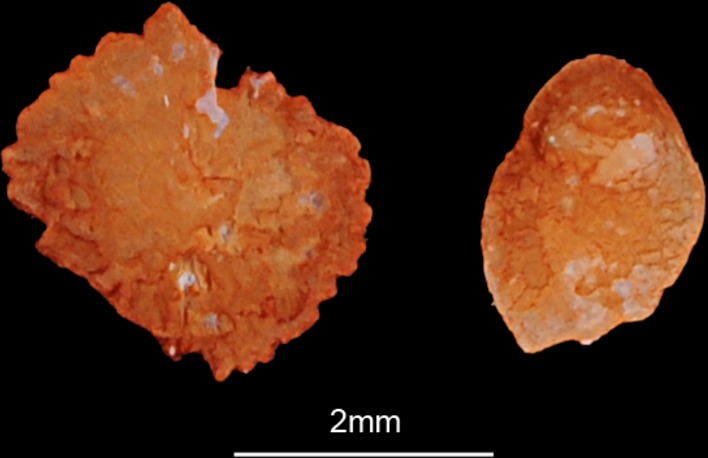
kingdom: Animalia
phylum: Chordata
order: Cypriniformes
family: Cyprinidae
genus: Ballerus
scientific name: Ballerus sapa
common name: White-eye bream
